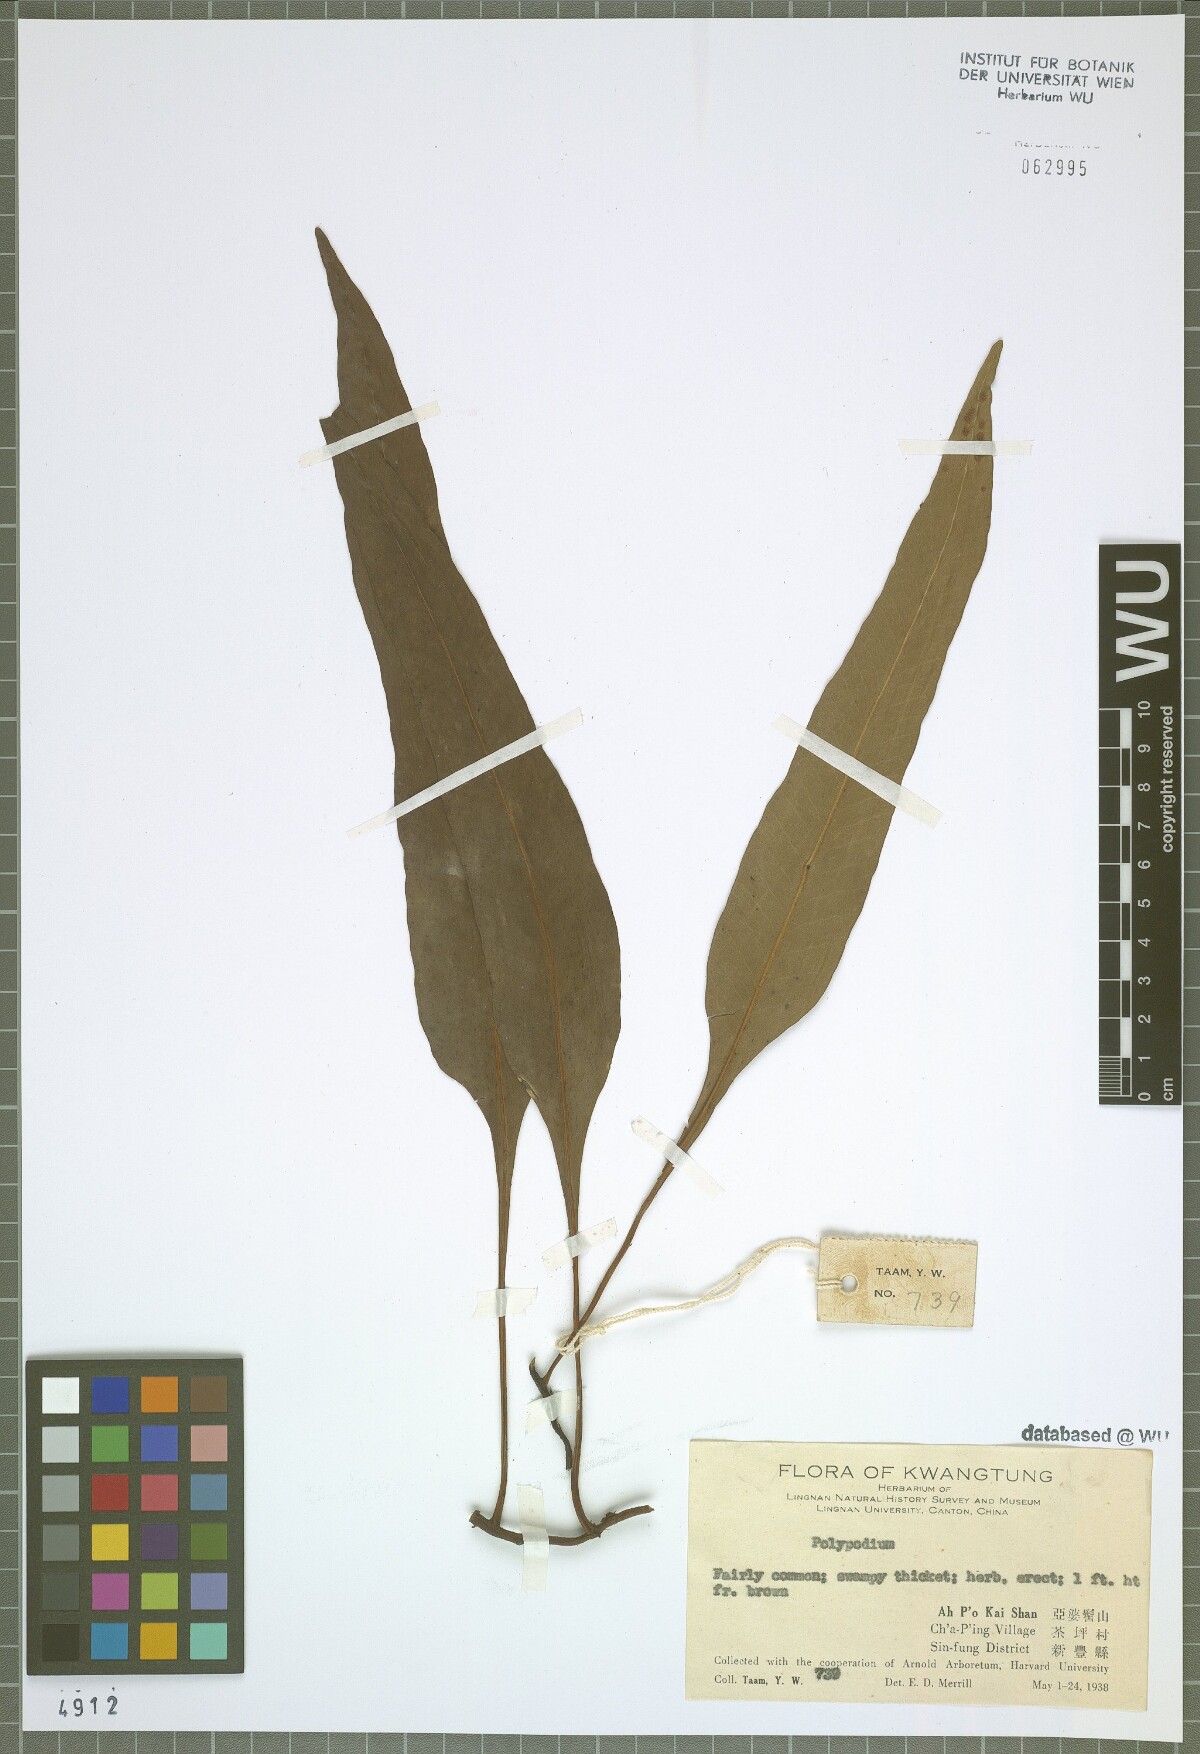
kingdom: Plantae
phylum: Tracheophyta
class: Polypodiopsida
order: Polypodiales
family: Polypodiaceae
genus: Polypodium
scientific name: Polypodium
